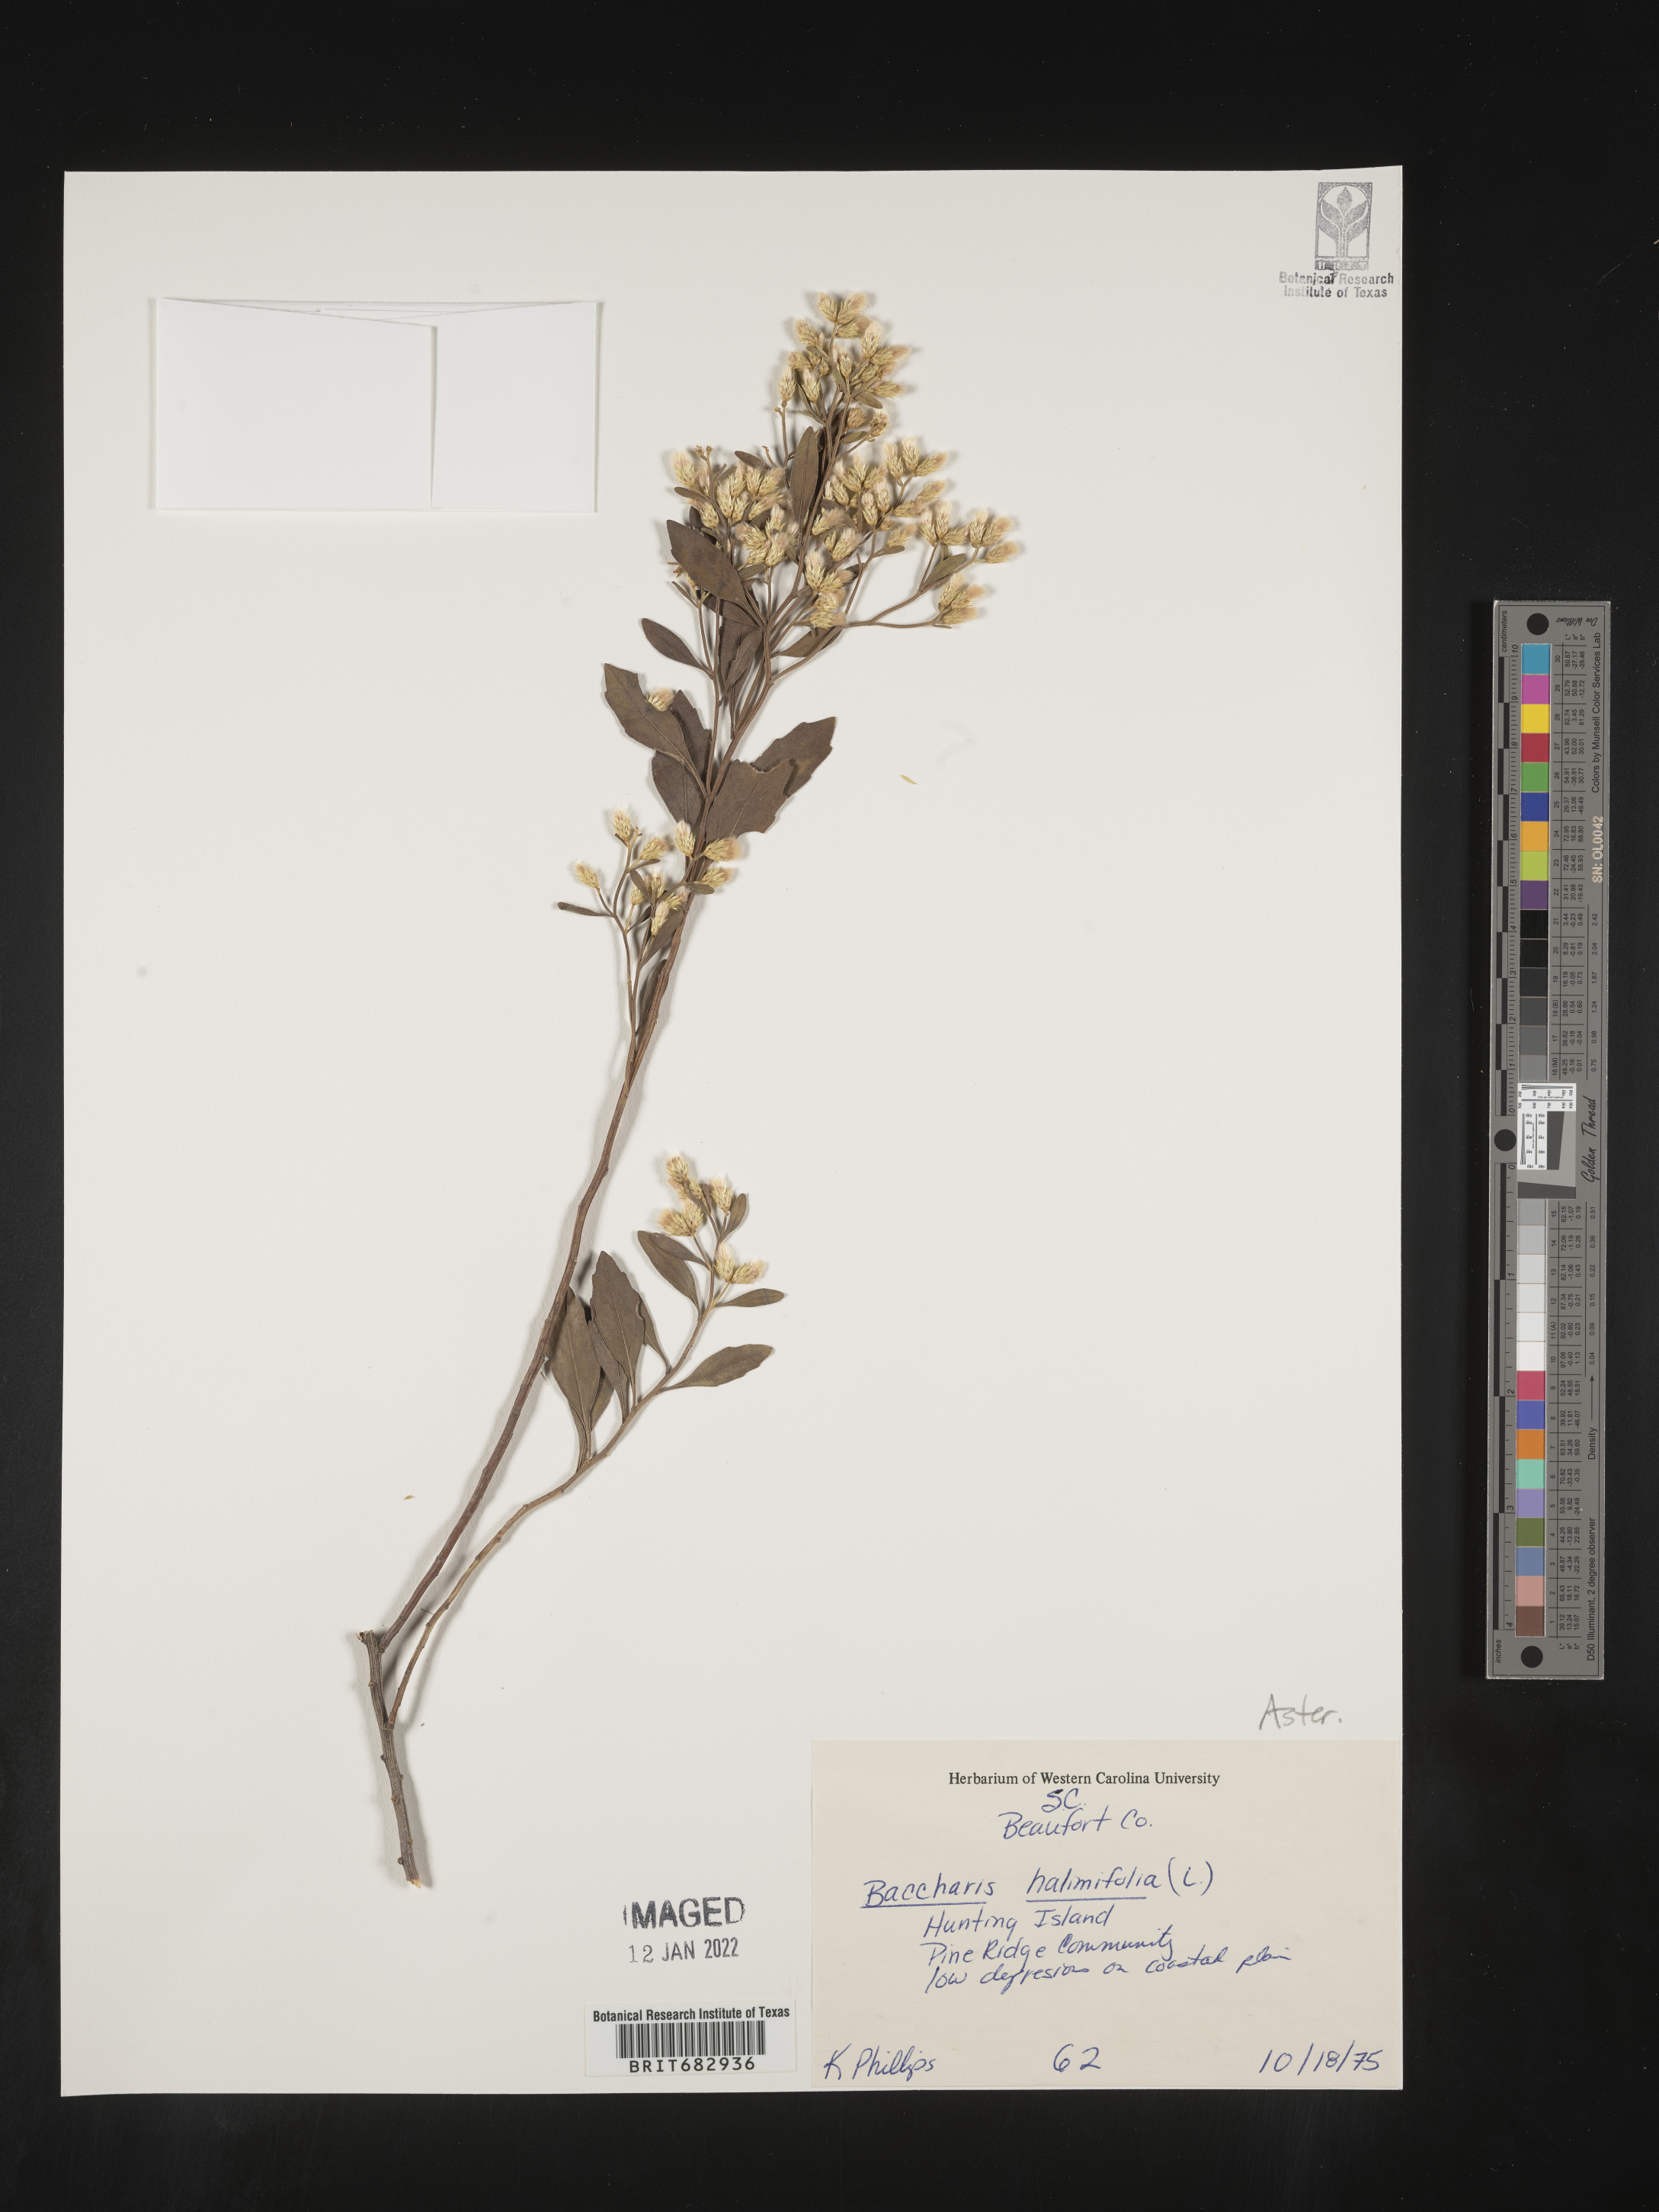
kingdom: Plantae
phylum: Tracheophyta
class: Magnoliopsida
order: Asterales
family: Asteraceae
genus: Nidorella
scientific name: Nidorella ivifolia
